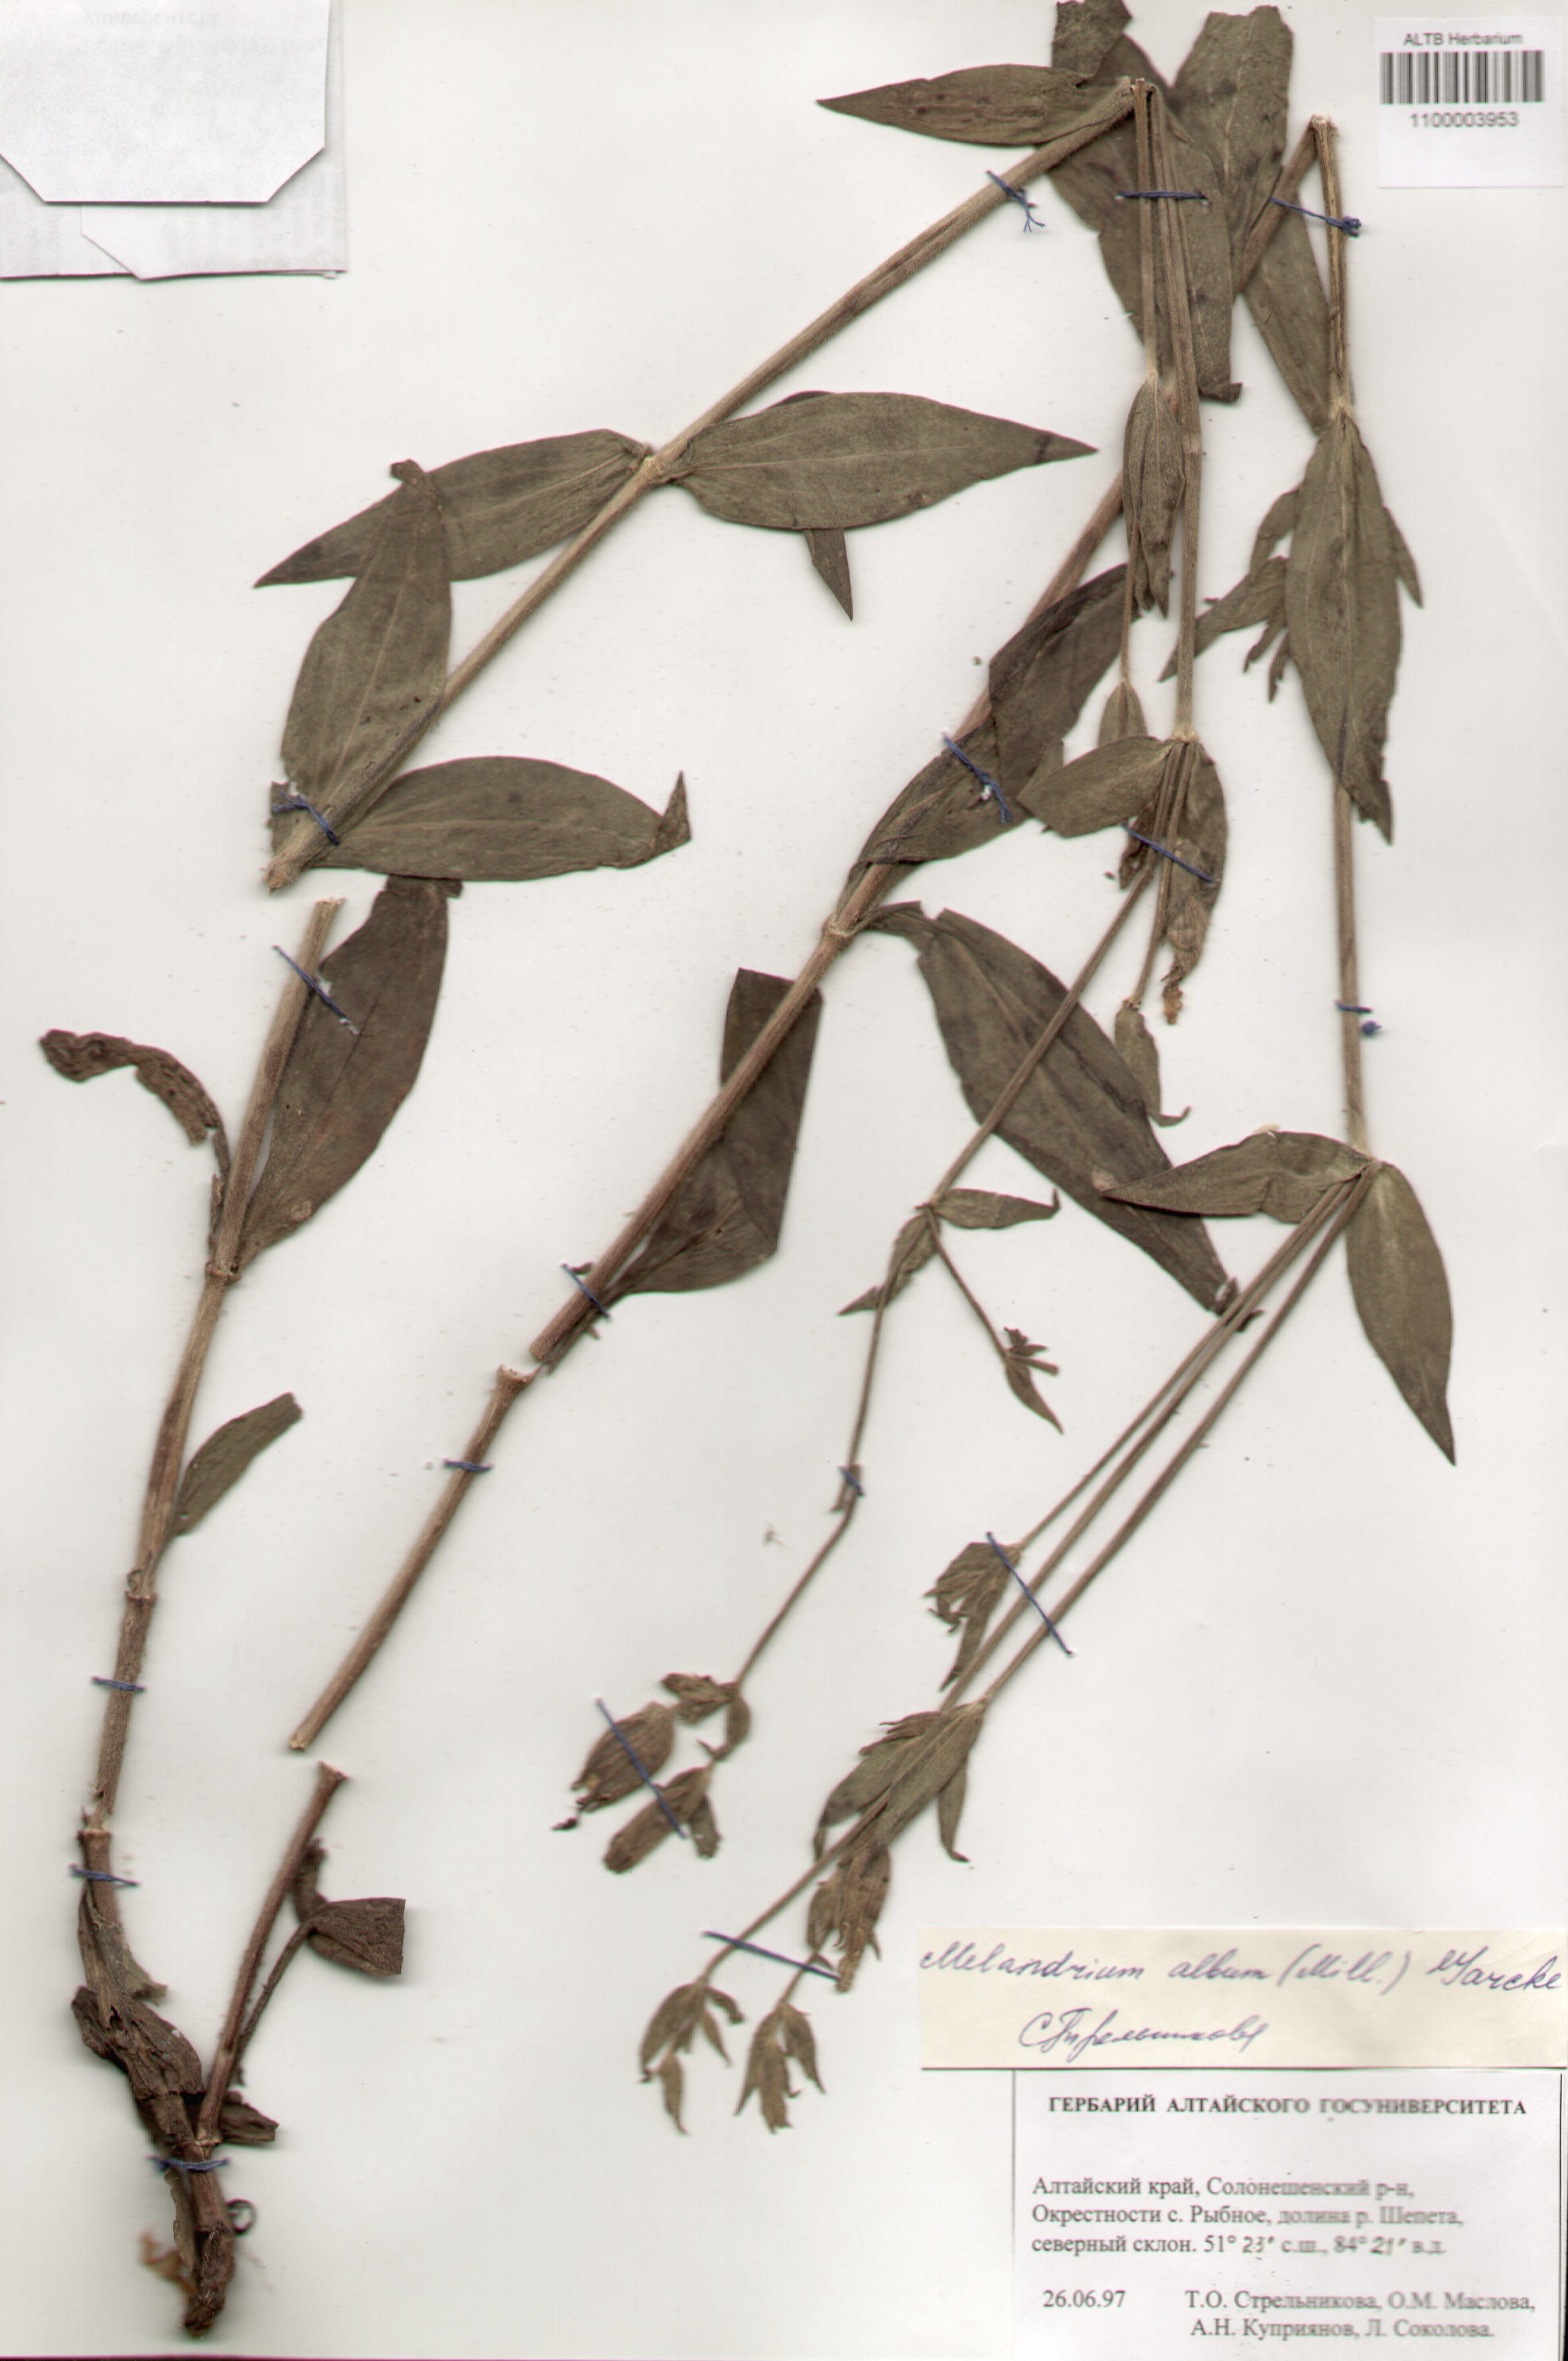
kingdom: Plantae
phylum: Tracheophyta
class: Magnoliopsida
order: Caryophyllales
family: Caryophyllaceae
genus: Silene
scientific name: Silene latifolia
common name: White campion
